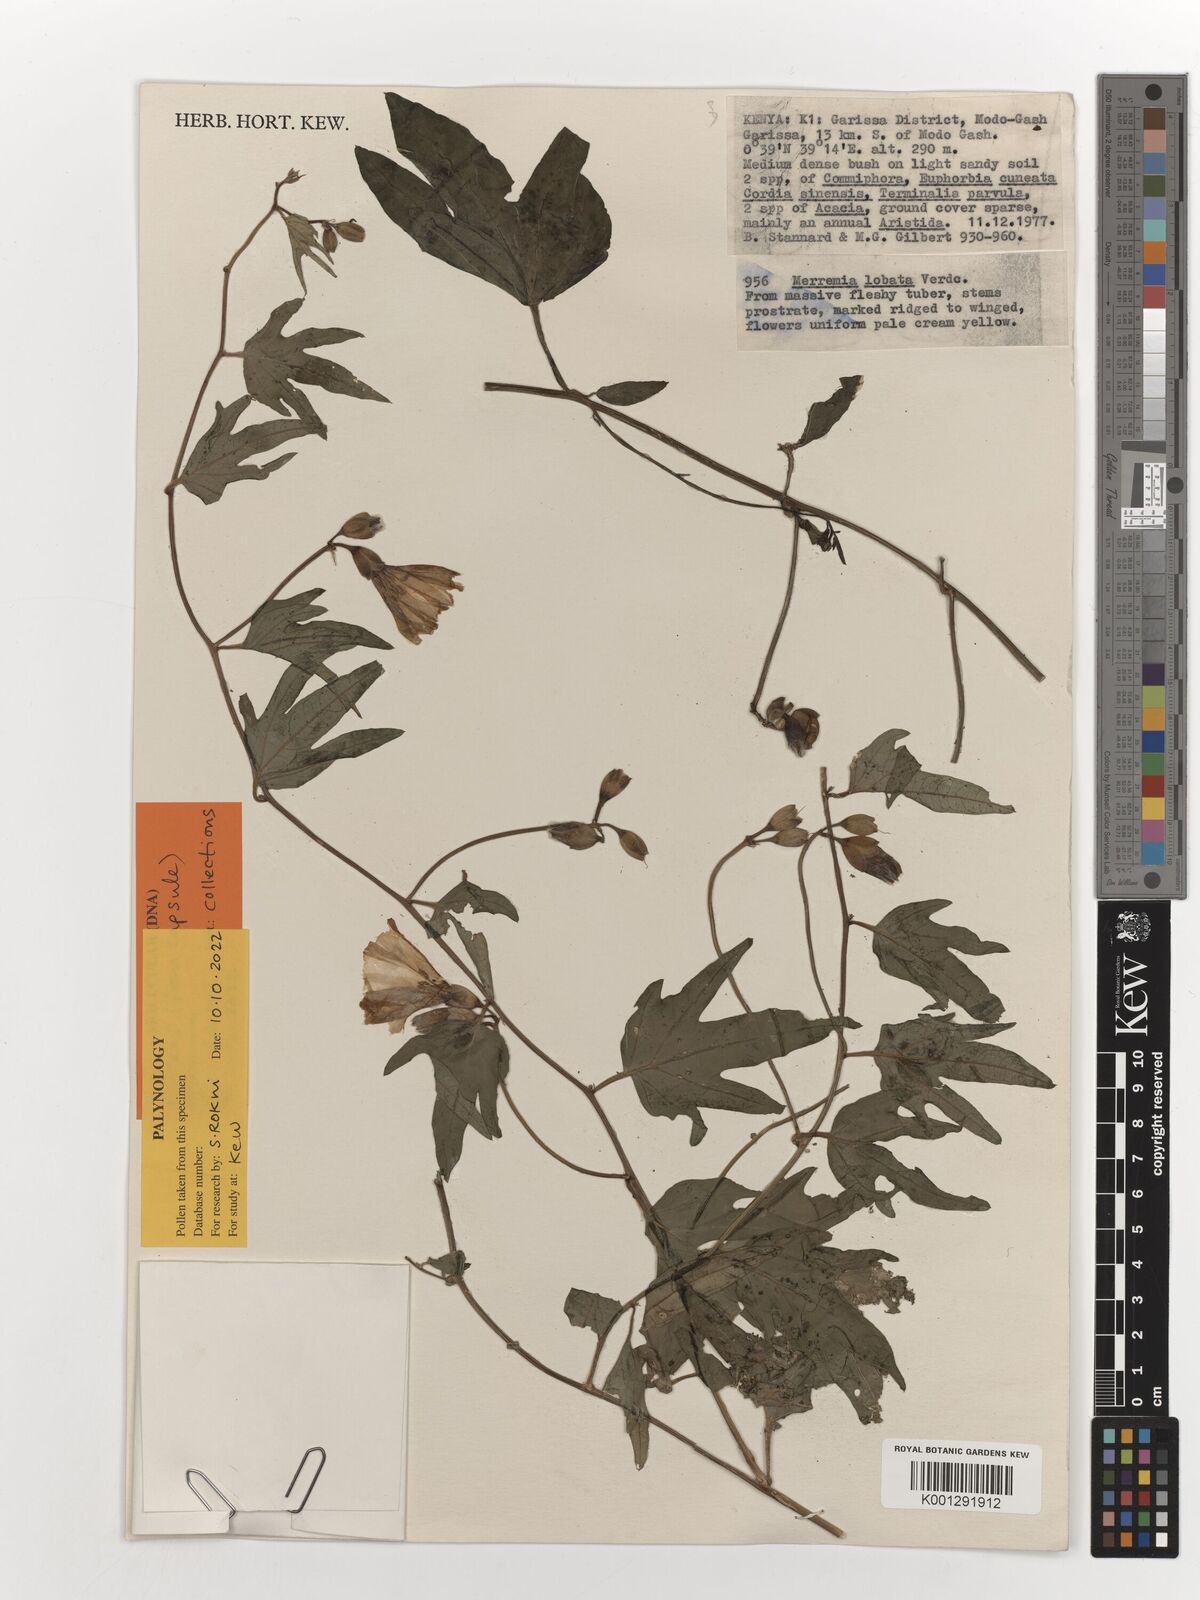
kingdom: Plantae
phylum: Tracheophyta
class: Magnoliopsida
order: Solanales
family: Convolvulaceae
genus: Merremia
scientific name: Merremia ellenbeckii
